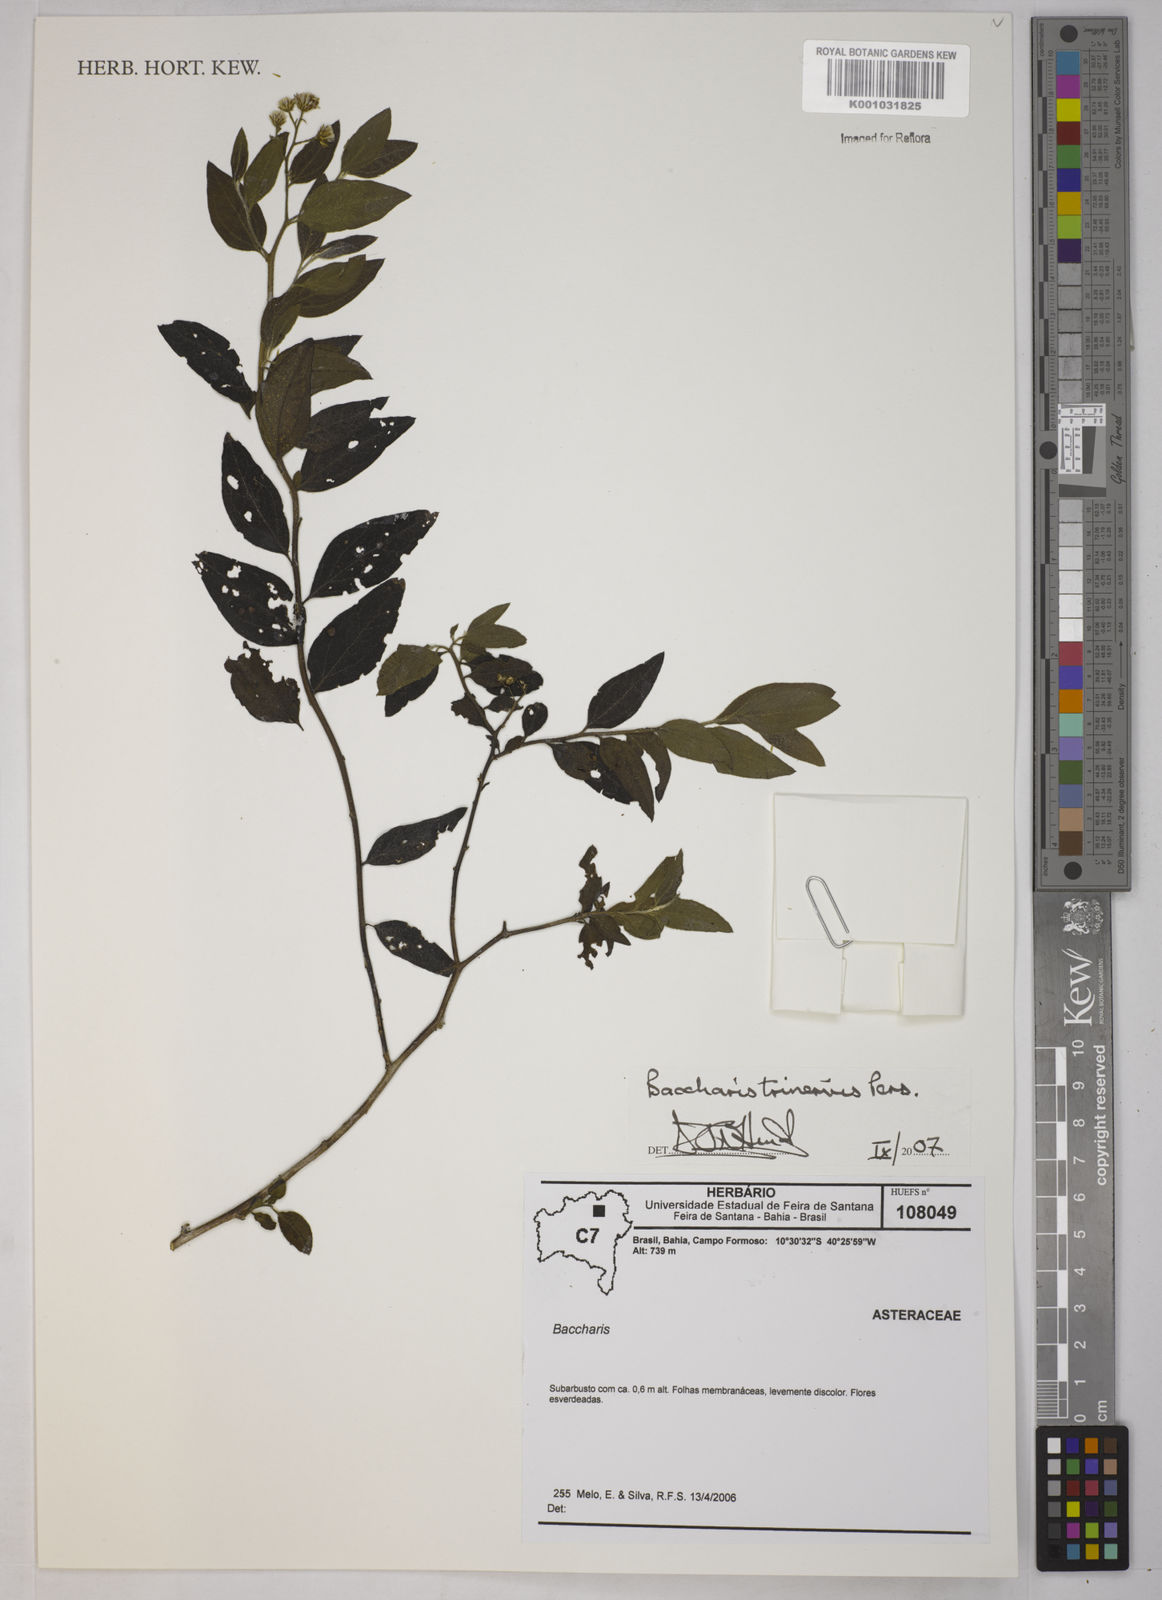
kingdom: Plantae
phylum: Tracheophyta
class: Magnoliopsida
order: Asterales
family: Asteraceae
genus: Baccharis
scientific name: Baccharis trinervis
